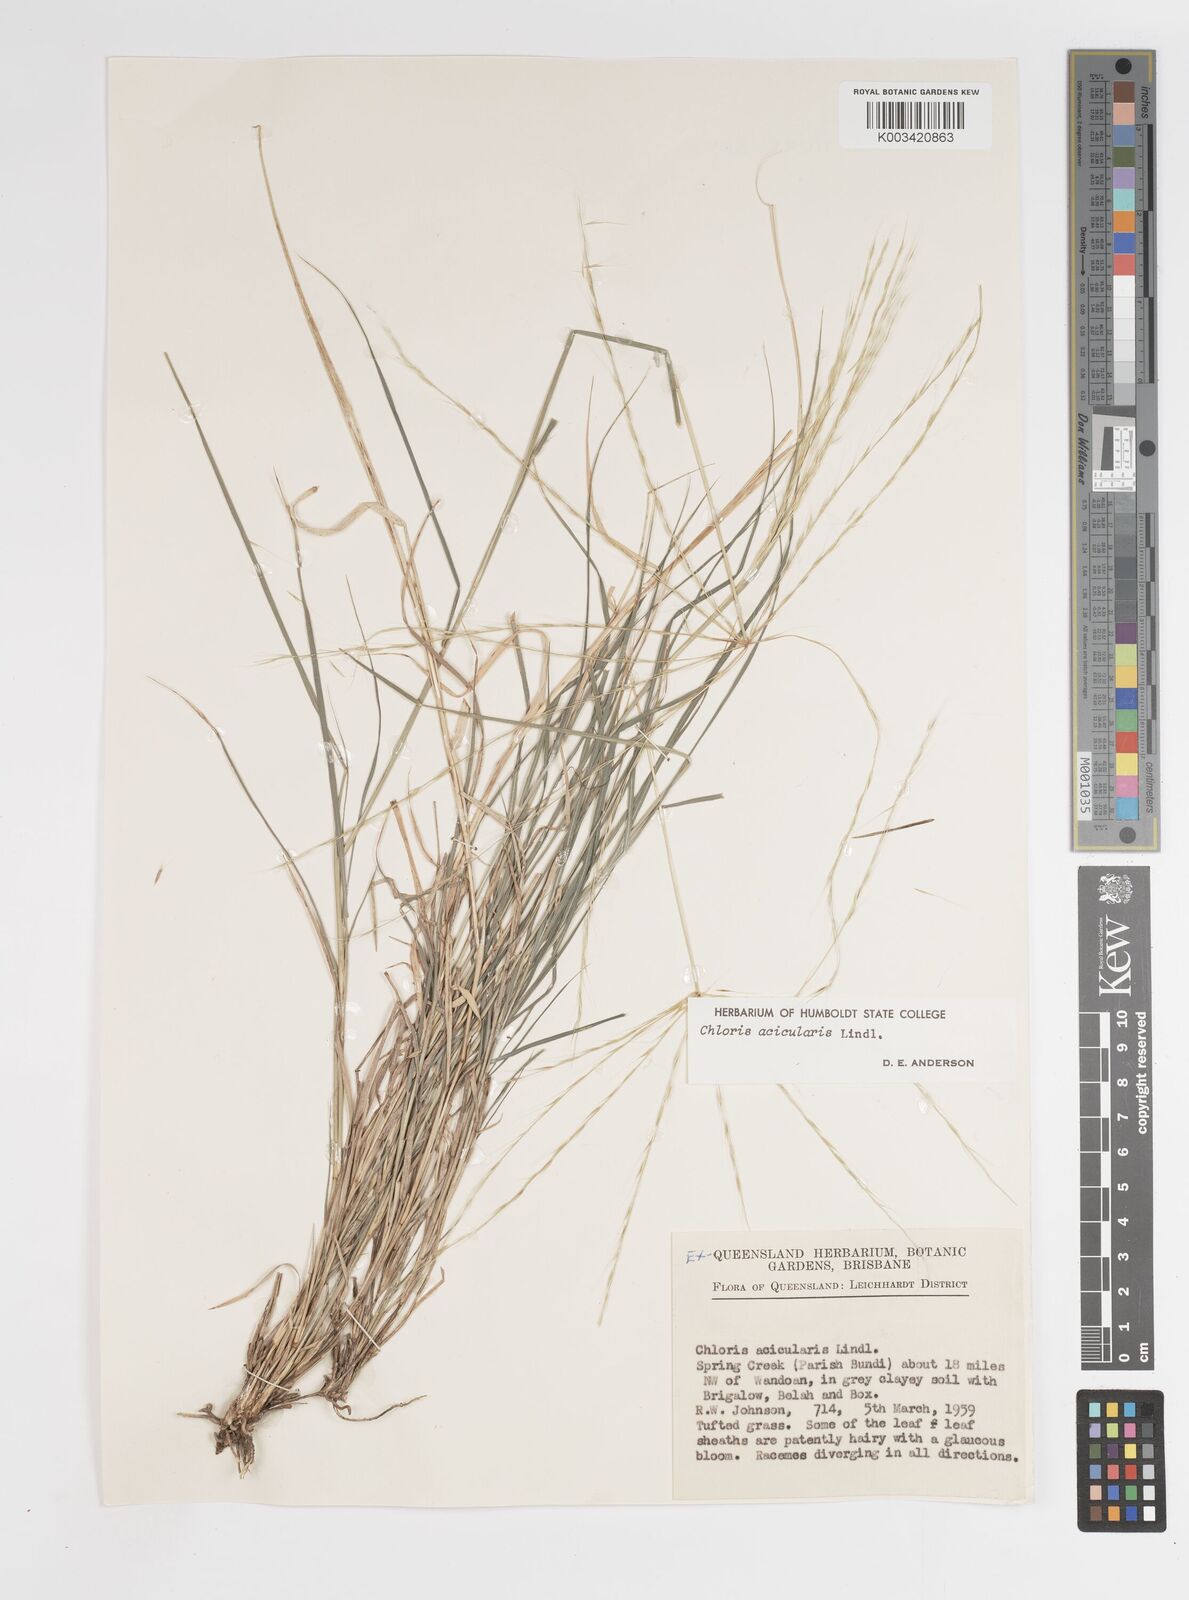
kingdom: Plantae
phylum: Tracheophyta
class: Liliopsida
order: Poales
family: Poaceae
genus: Enteropogon
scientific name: Enteropogon acicularis
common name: Curly windmill grass
